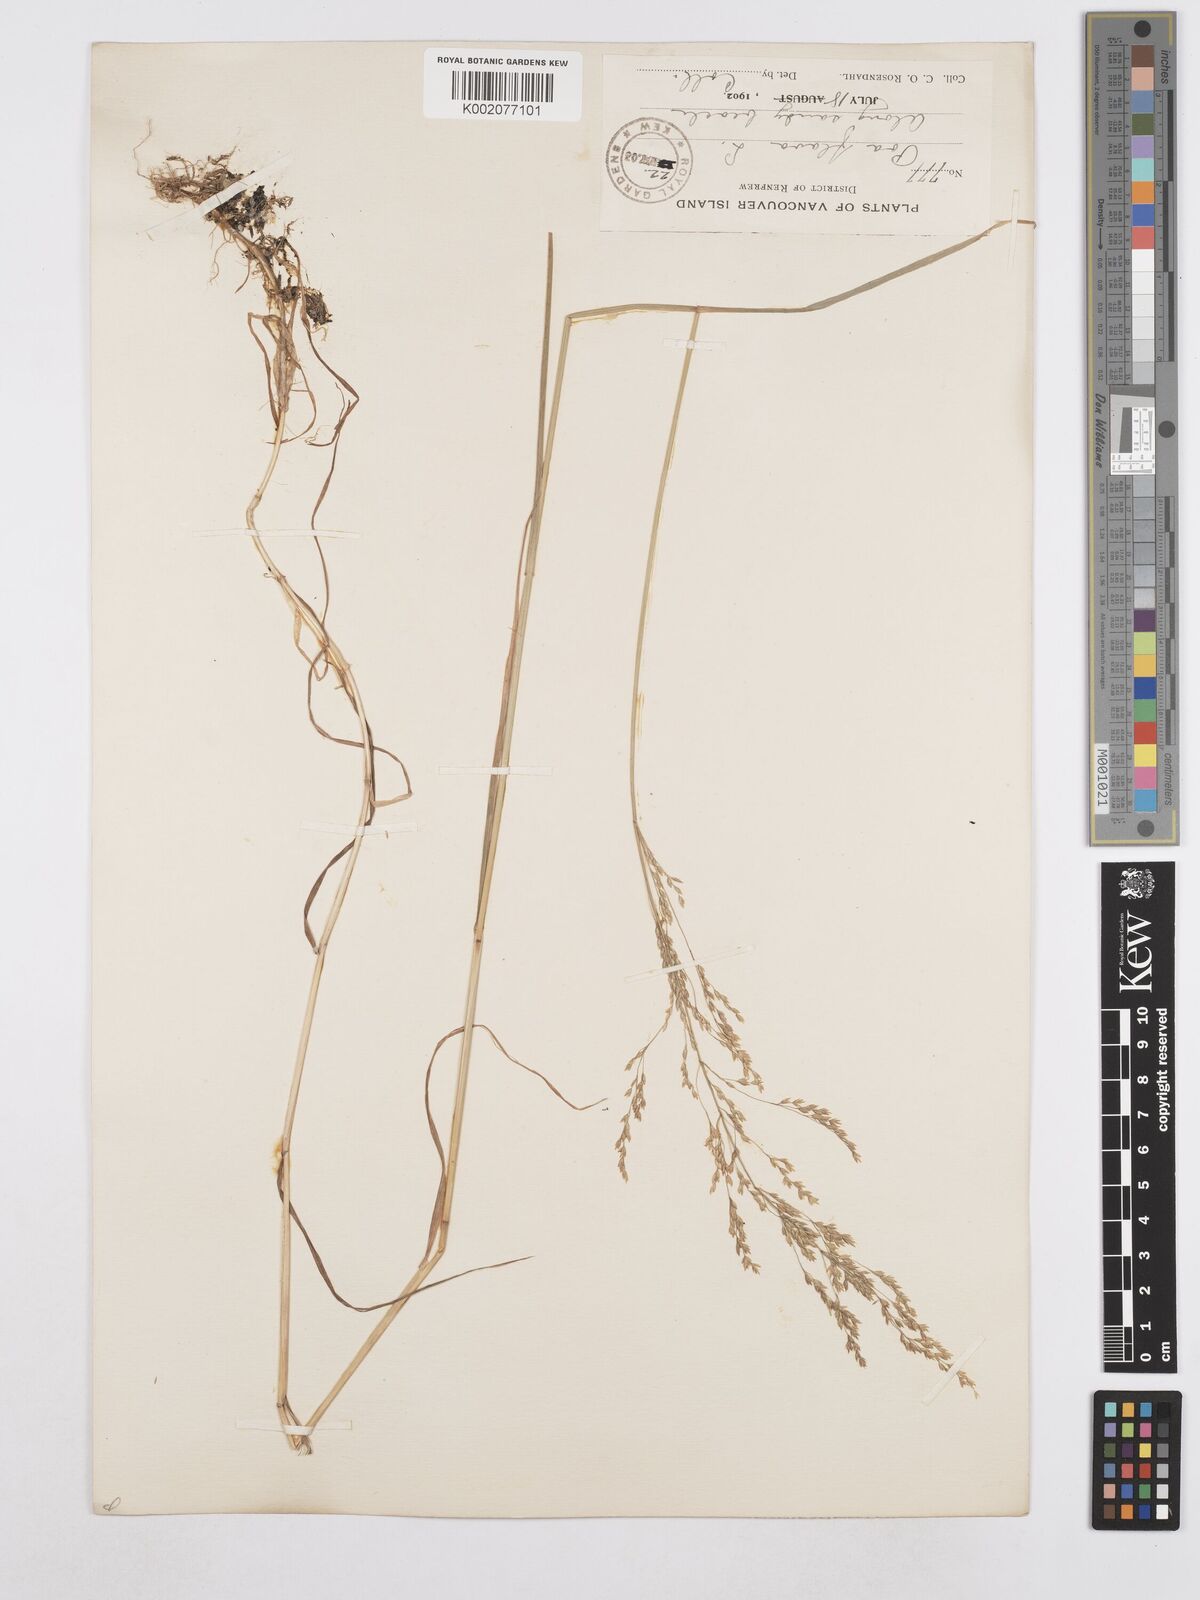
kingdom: Plantae
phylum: Tracheophyta
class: Liliopsida
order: Poales
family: Poaceae
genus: Poa
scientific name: Poa palustris
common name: Swamp meadow-grass
